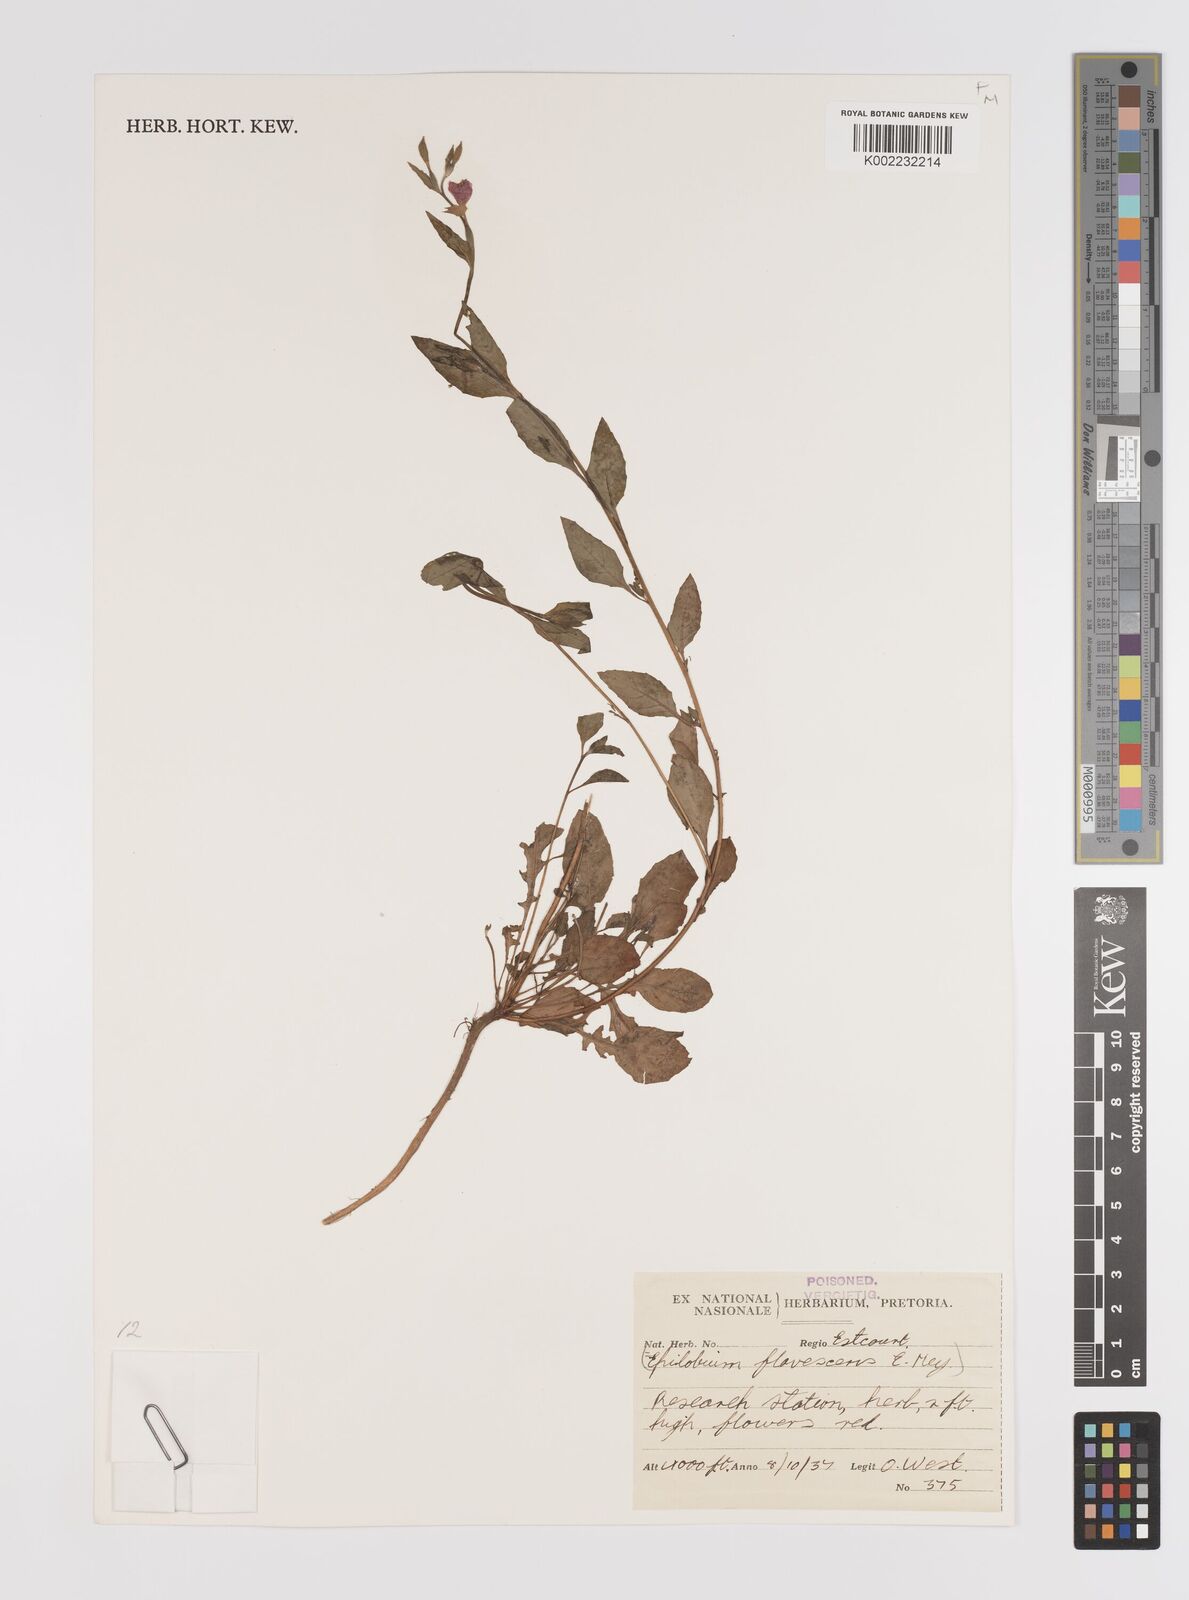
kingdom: Plantae
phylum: Tracheophyta
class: Magnoliopsida
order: Myrtales
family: Onagraceae
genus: Epilobium
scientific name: Epilobium capense
